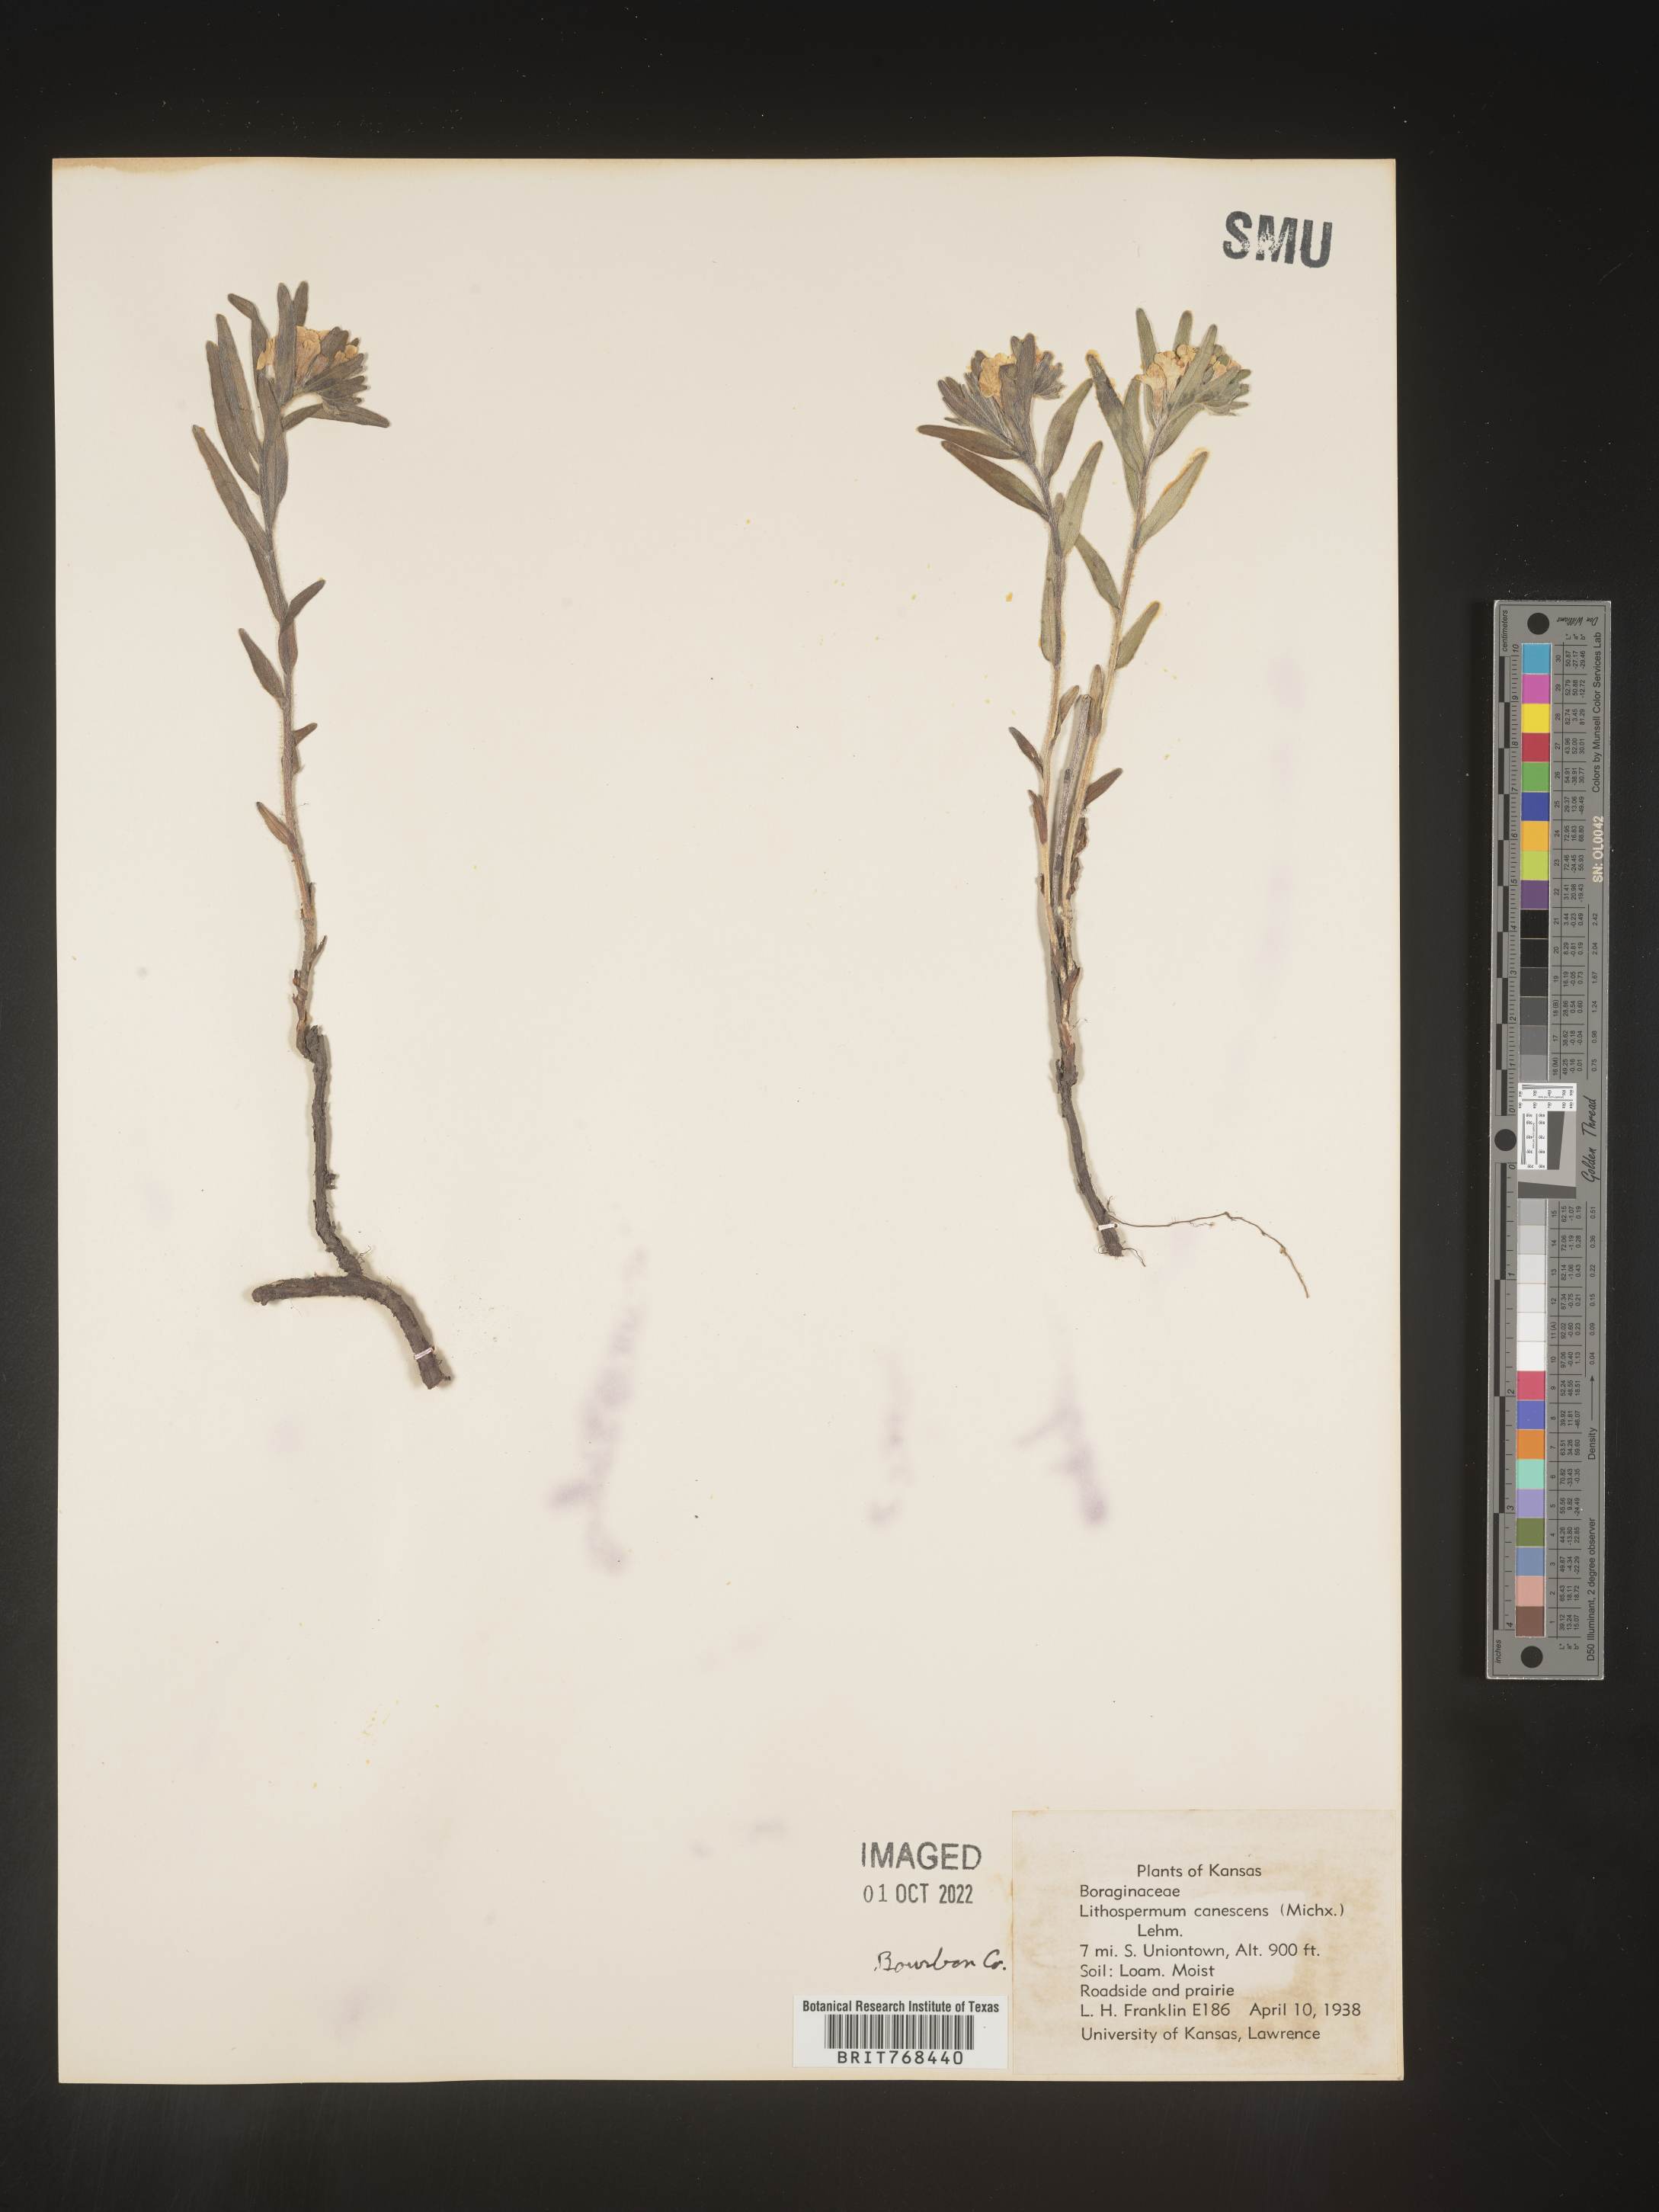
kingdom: Plantae
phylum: Tracheophyta
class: Magnoliopsida
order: Boraginales
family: Boraginaceae
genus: Lithospermum
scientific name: Lithospermum canescens
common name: Hoary puccoon
